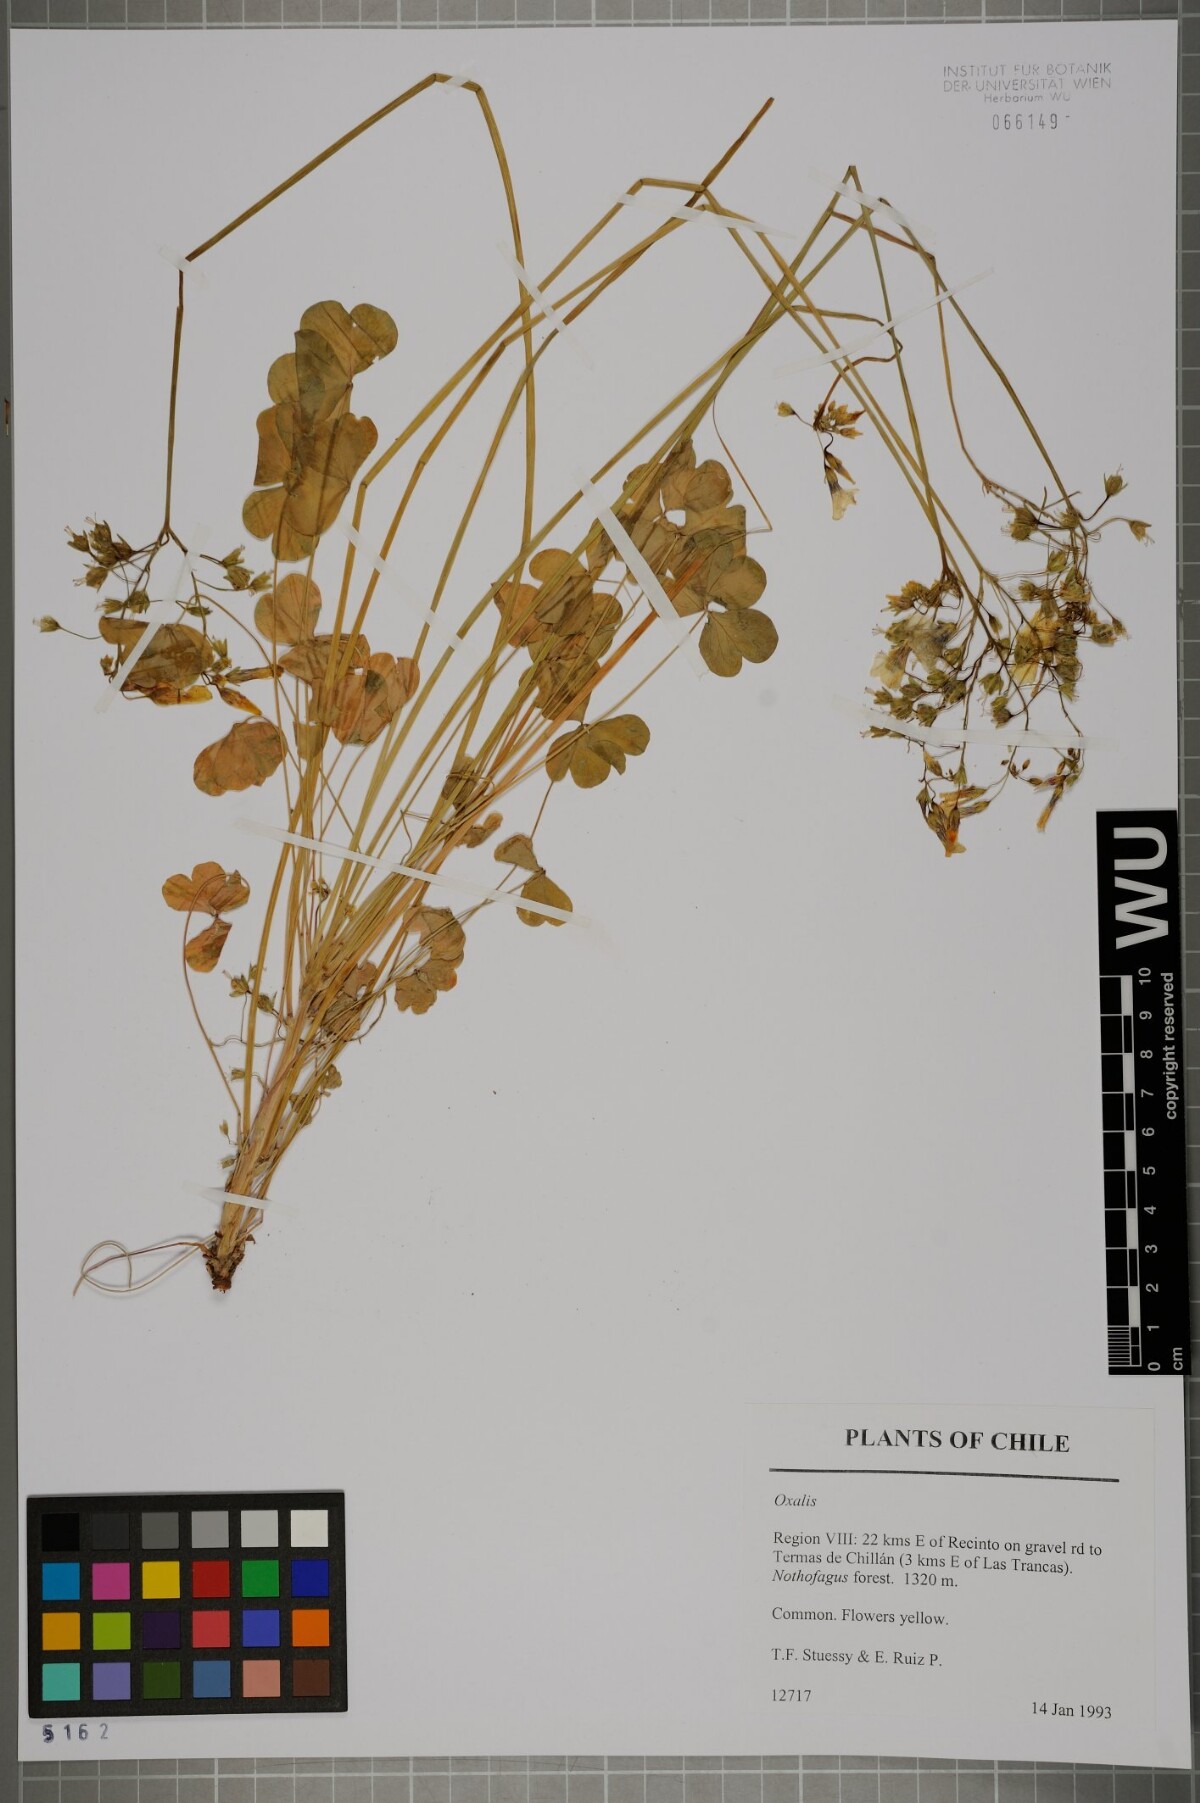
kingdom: Plantae
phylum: Tracheophyta
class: Magnoliopsida
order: Oxalidales
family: Oxalidaceae
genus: Oxalis
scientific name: Oxalis
